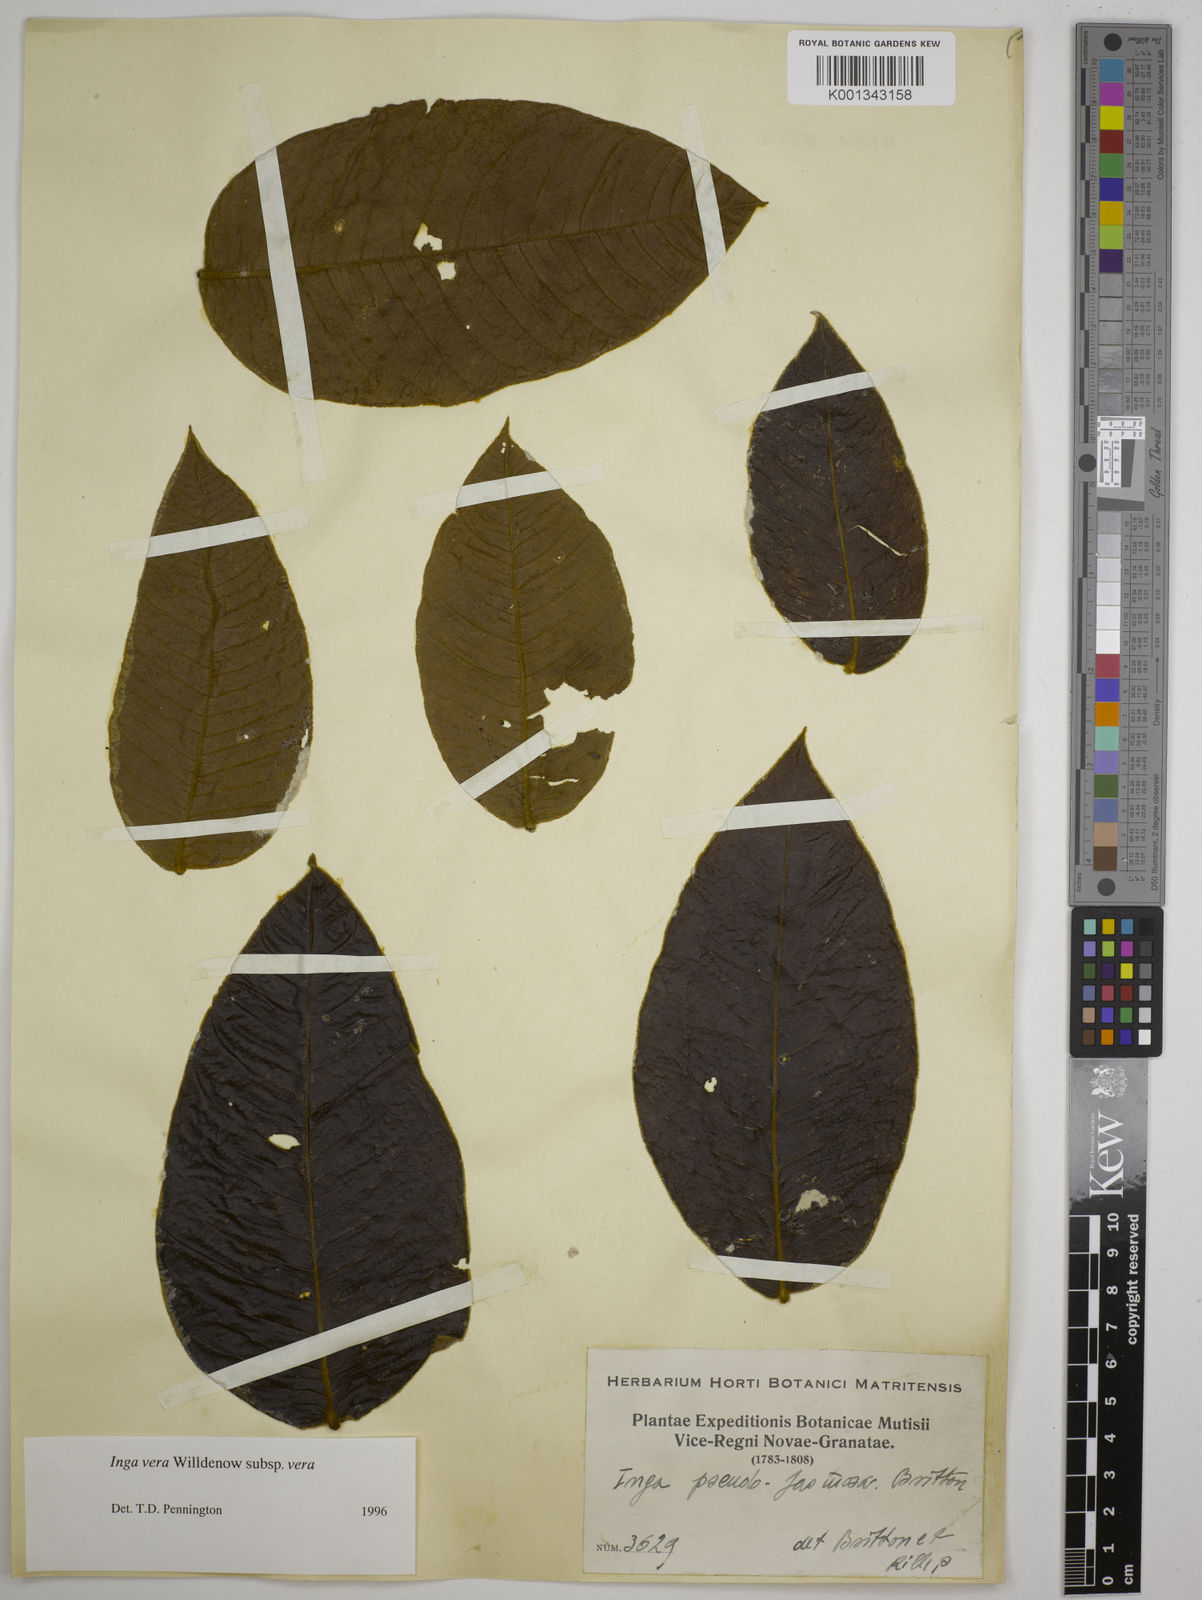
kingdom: Plantae
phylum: Tracheophyta
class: Magnoliopsida
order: Fabales
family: Fabaceae
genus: Inga
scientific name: Inga vera
